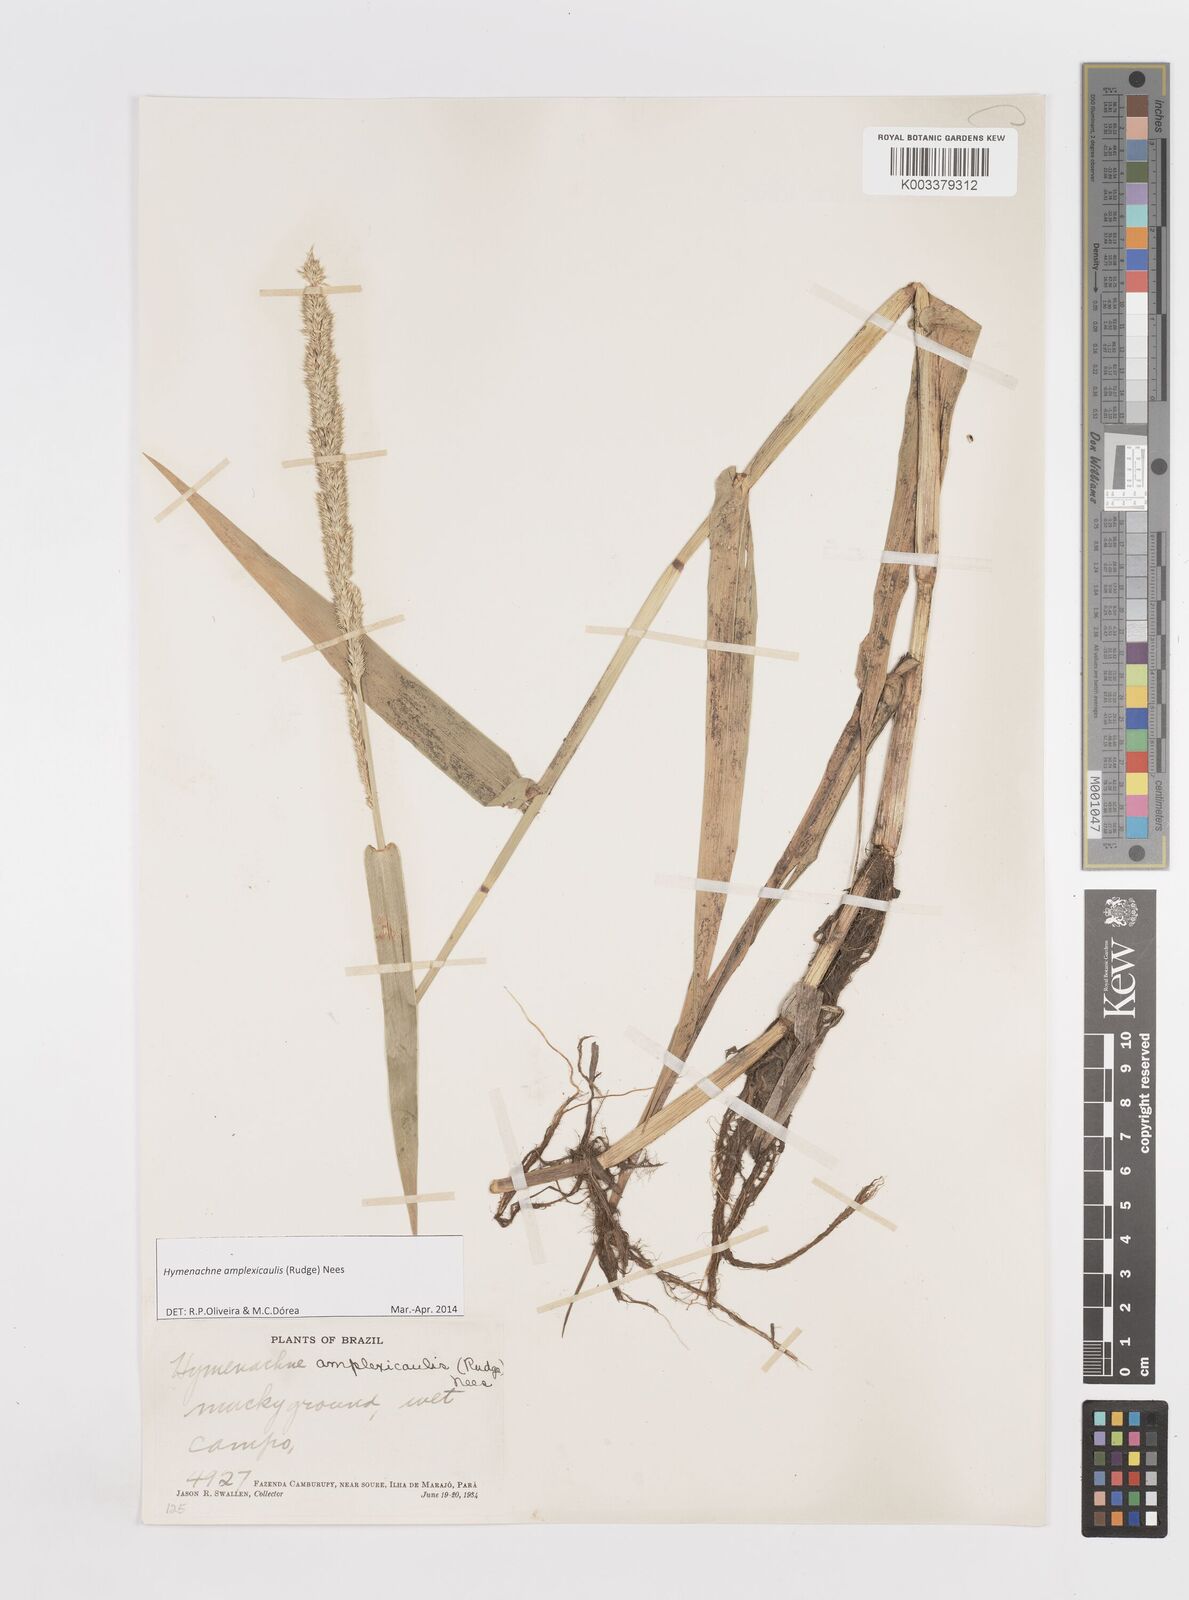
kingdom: Plantae
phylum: Tracheophyta
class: Liliopsida
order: Poales
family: Poaceae
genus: Hymenachne
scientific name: Hymenachne amplexicaulis
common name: Olive hymenachne
